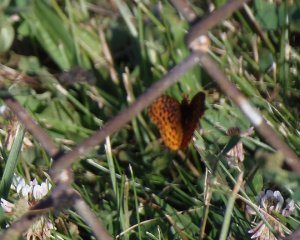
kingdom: Animalia
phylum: Arthropoda
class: Insecta
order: Lepidoptera
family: Nymphalidae
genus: Clossiana
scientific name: Clossiana toddi
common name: Meadow Fritillary
